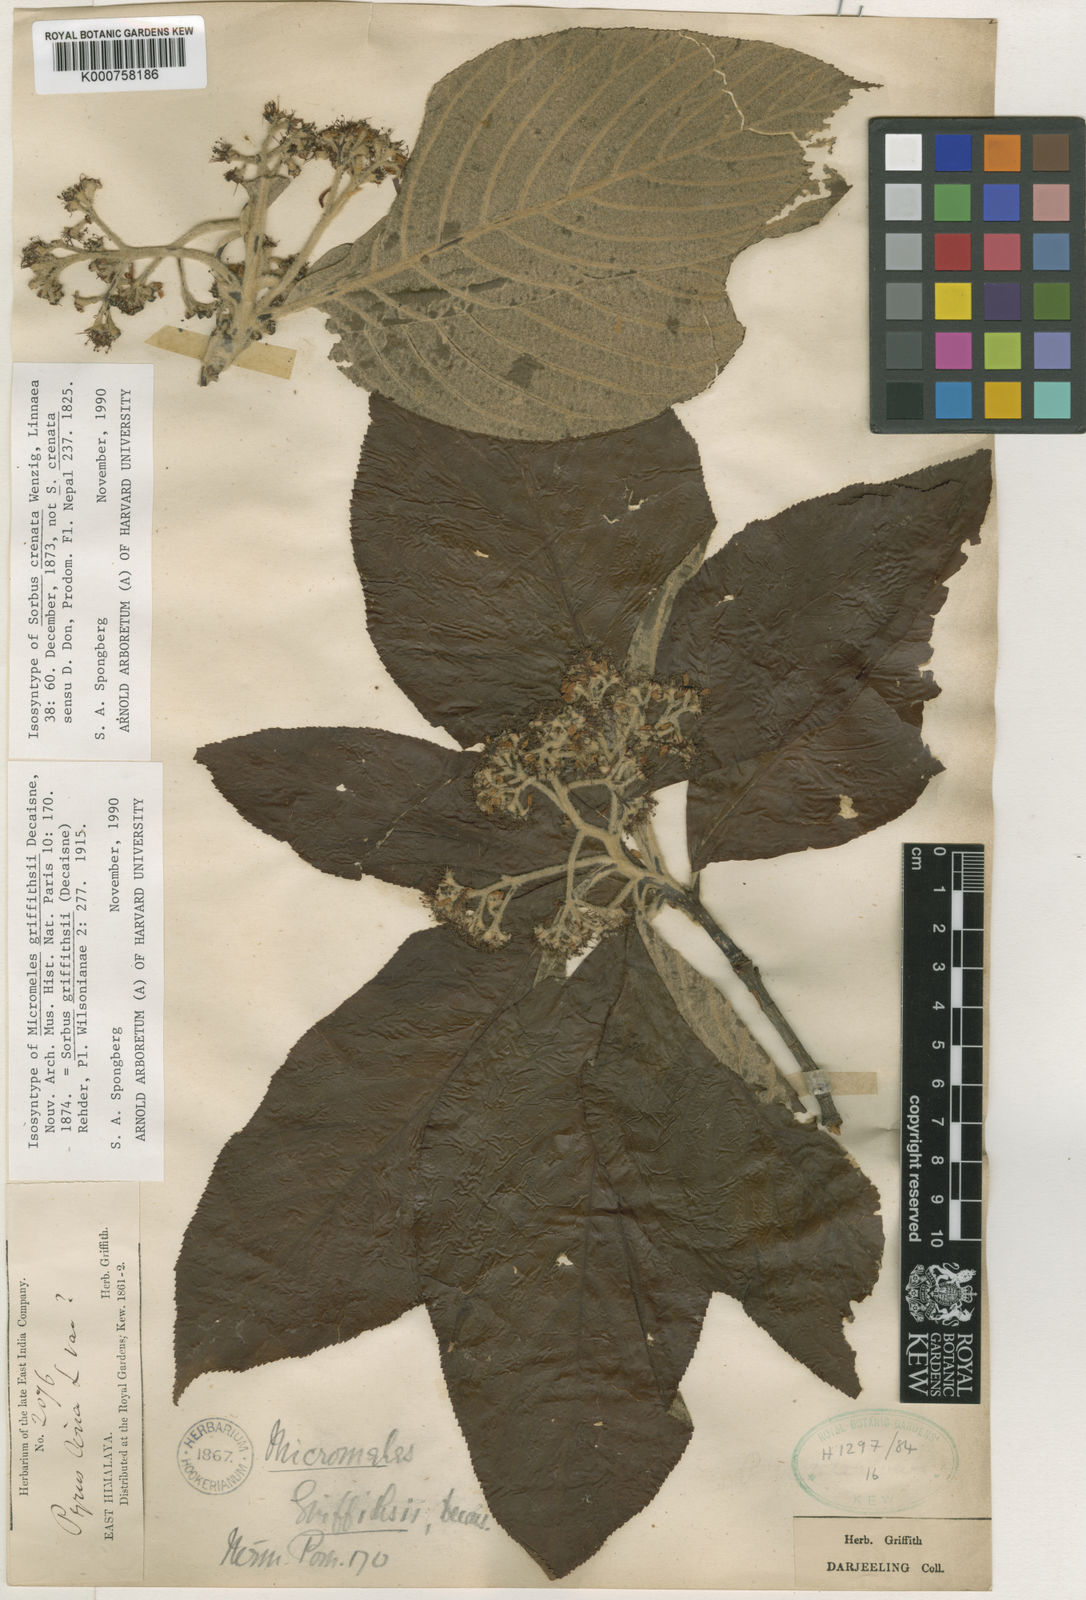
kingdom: Plantae
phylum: Tracheophyta
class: Magnoliopsida
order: Rosales
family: Rosaceae
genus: Micromeles
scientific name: Micromeles griffithii
